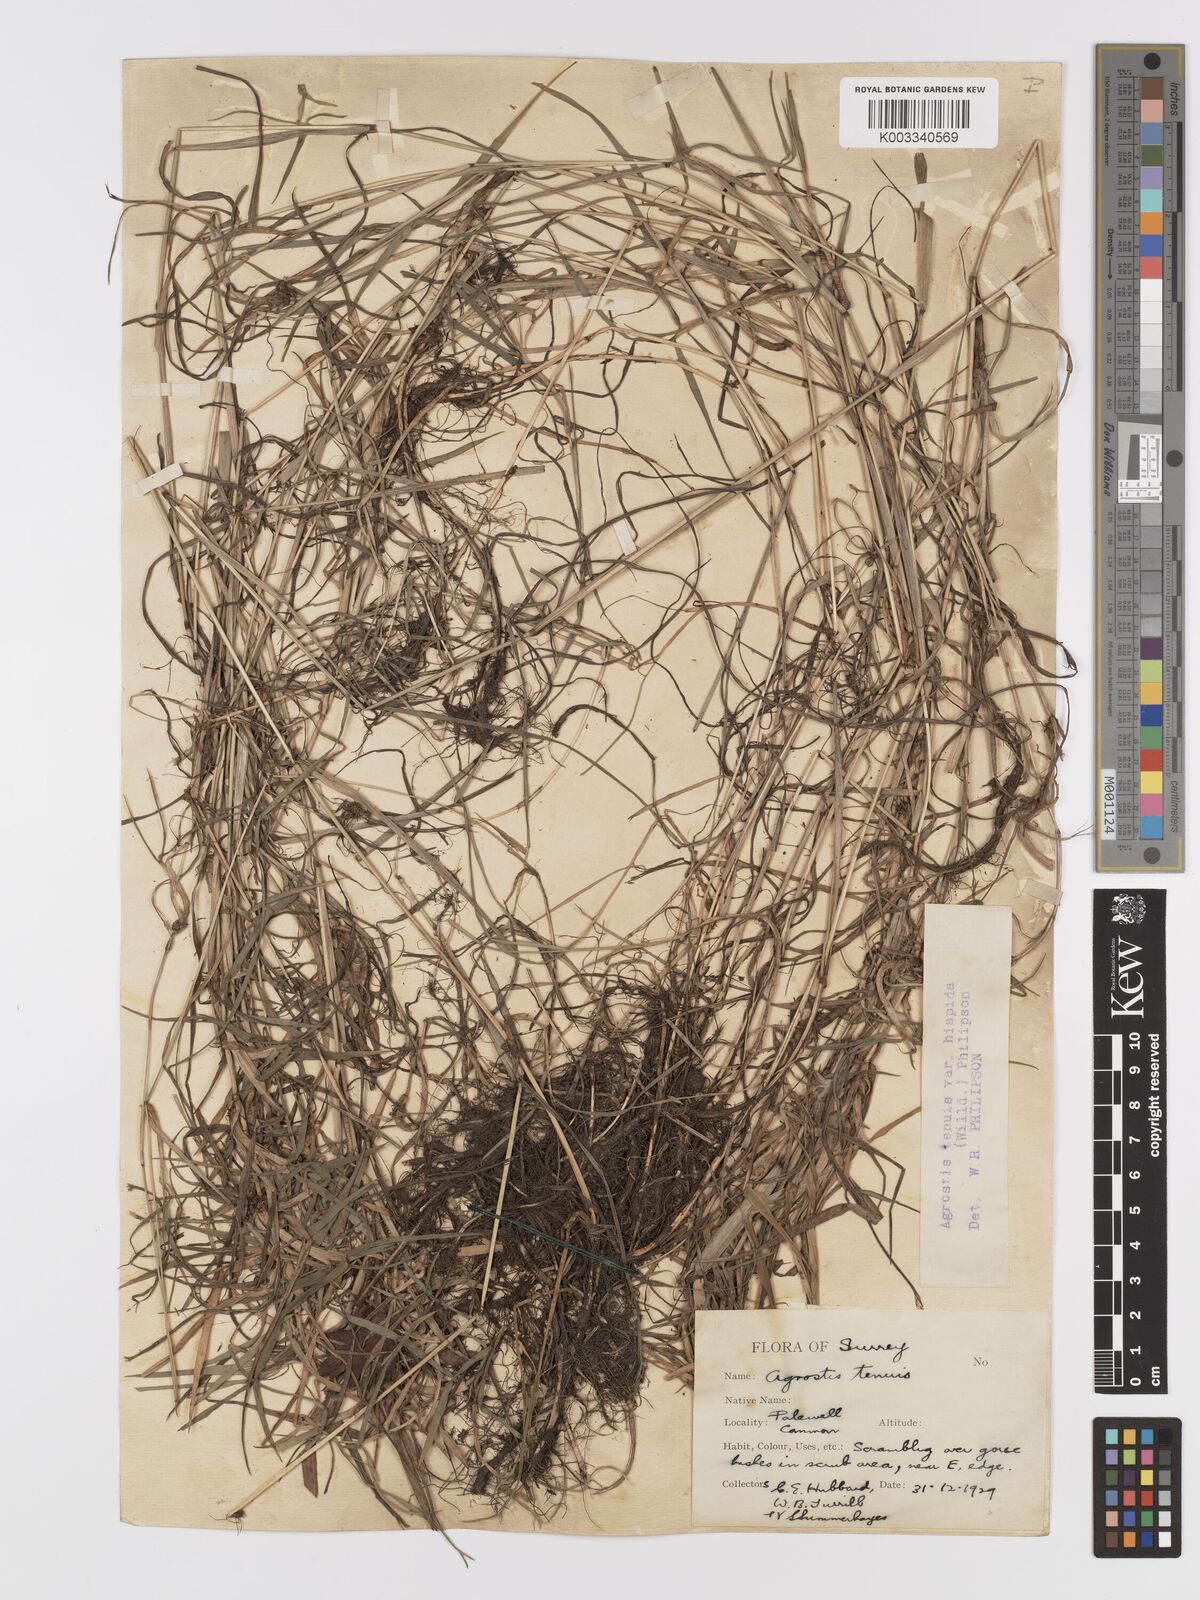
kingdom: Plantae
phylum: Tracheophyta
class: Liliopsida
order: Poales
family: Poaceae
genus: Agrostis
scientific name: Agrostis capillaris
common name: Colonial bentgrass
